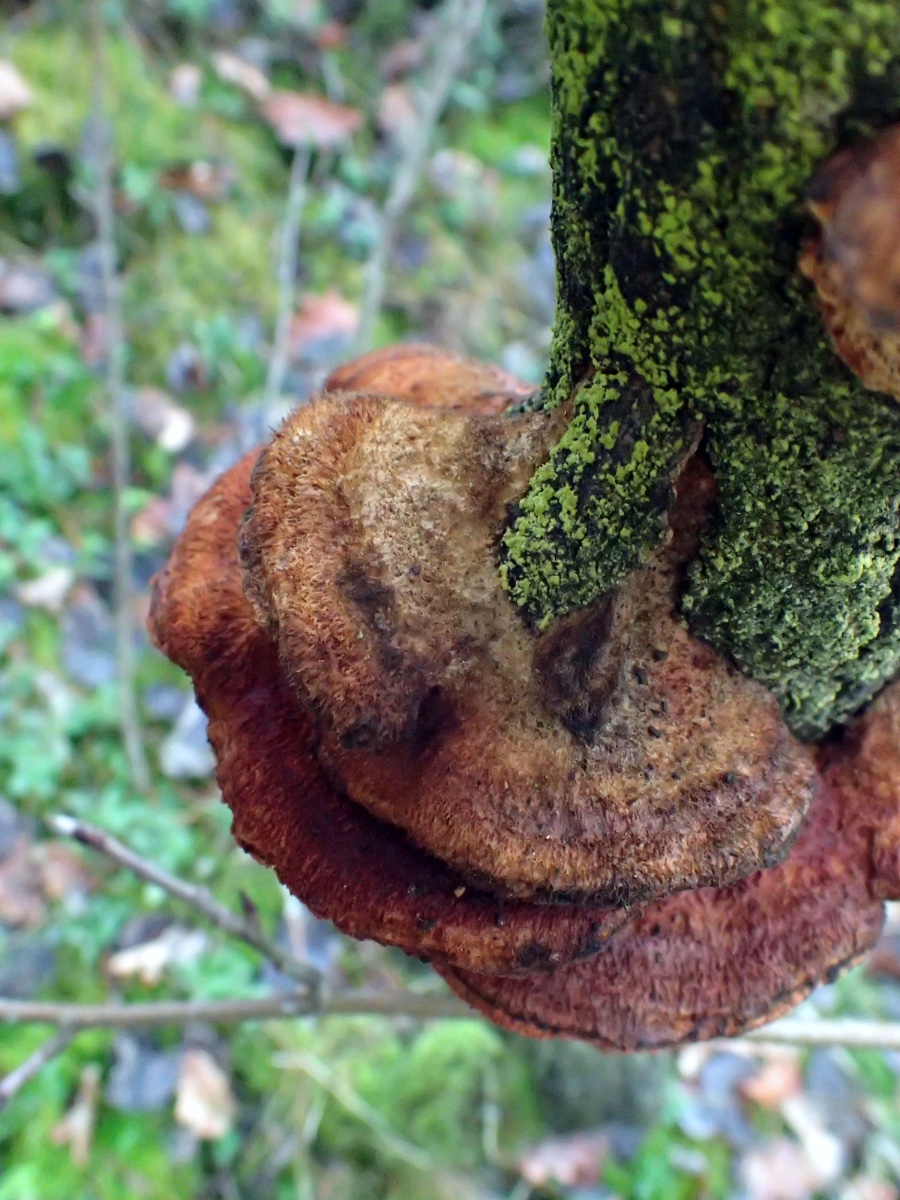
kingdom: Fungi
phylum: Basidiomycota
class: Agaricomycetes
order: Hymenochaetales
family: Hymenochaetaceae
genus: Inocutis
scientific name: Inocutis rheades
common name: ræve-spejlporesvamp
